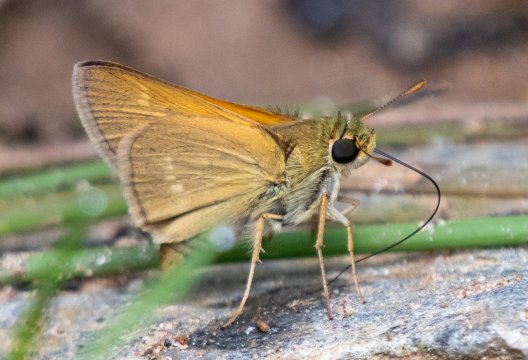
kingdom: Animalia
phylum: Arthropoda
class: Insecta
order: Lepidoptera
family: Hesperiidae
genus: Polites
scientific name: Polites
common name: Crossline Skipper
